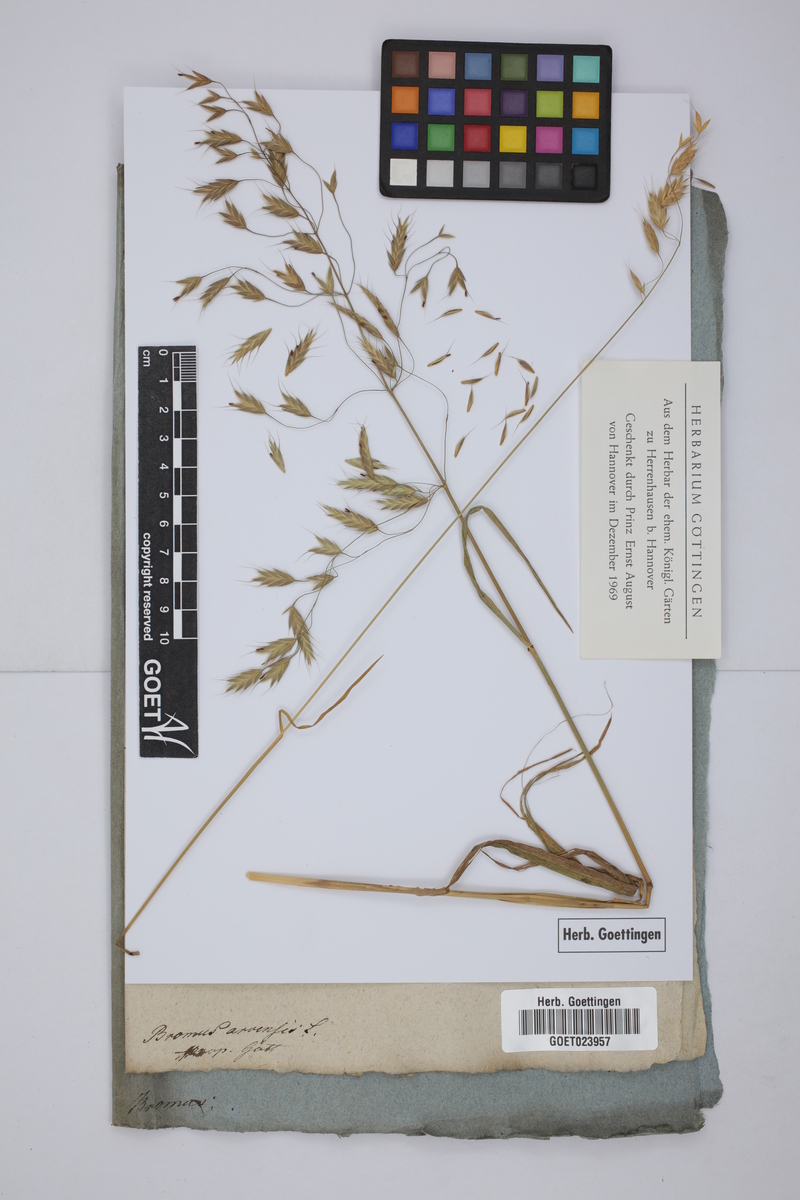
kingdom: Plantae
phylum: Tracheophyta
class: Liliopsida
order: Poales
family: Poaceae
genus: Bromus
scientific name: Bromus arvensis
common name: Field brome
